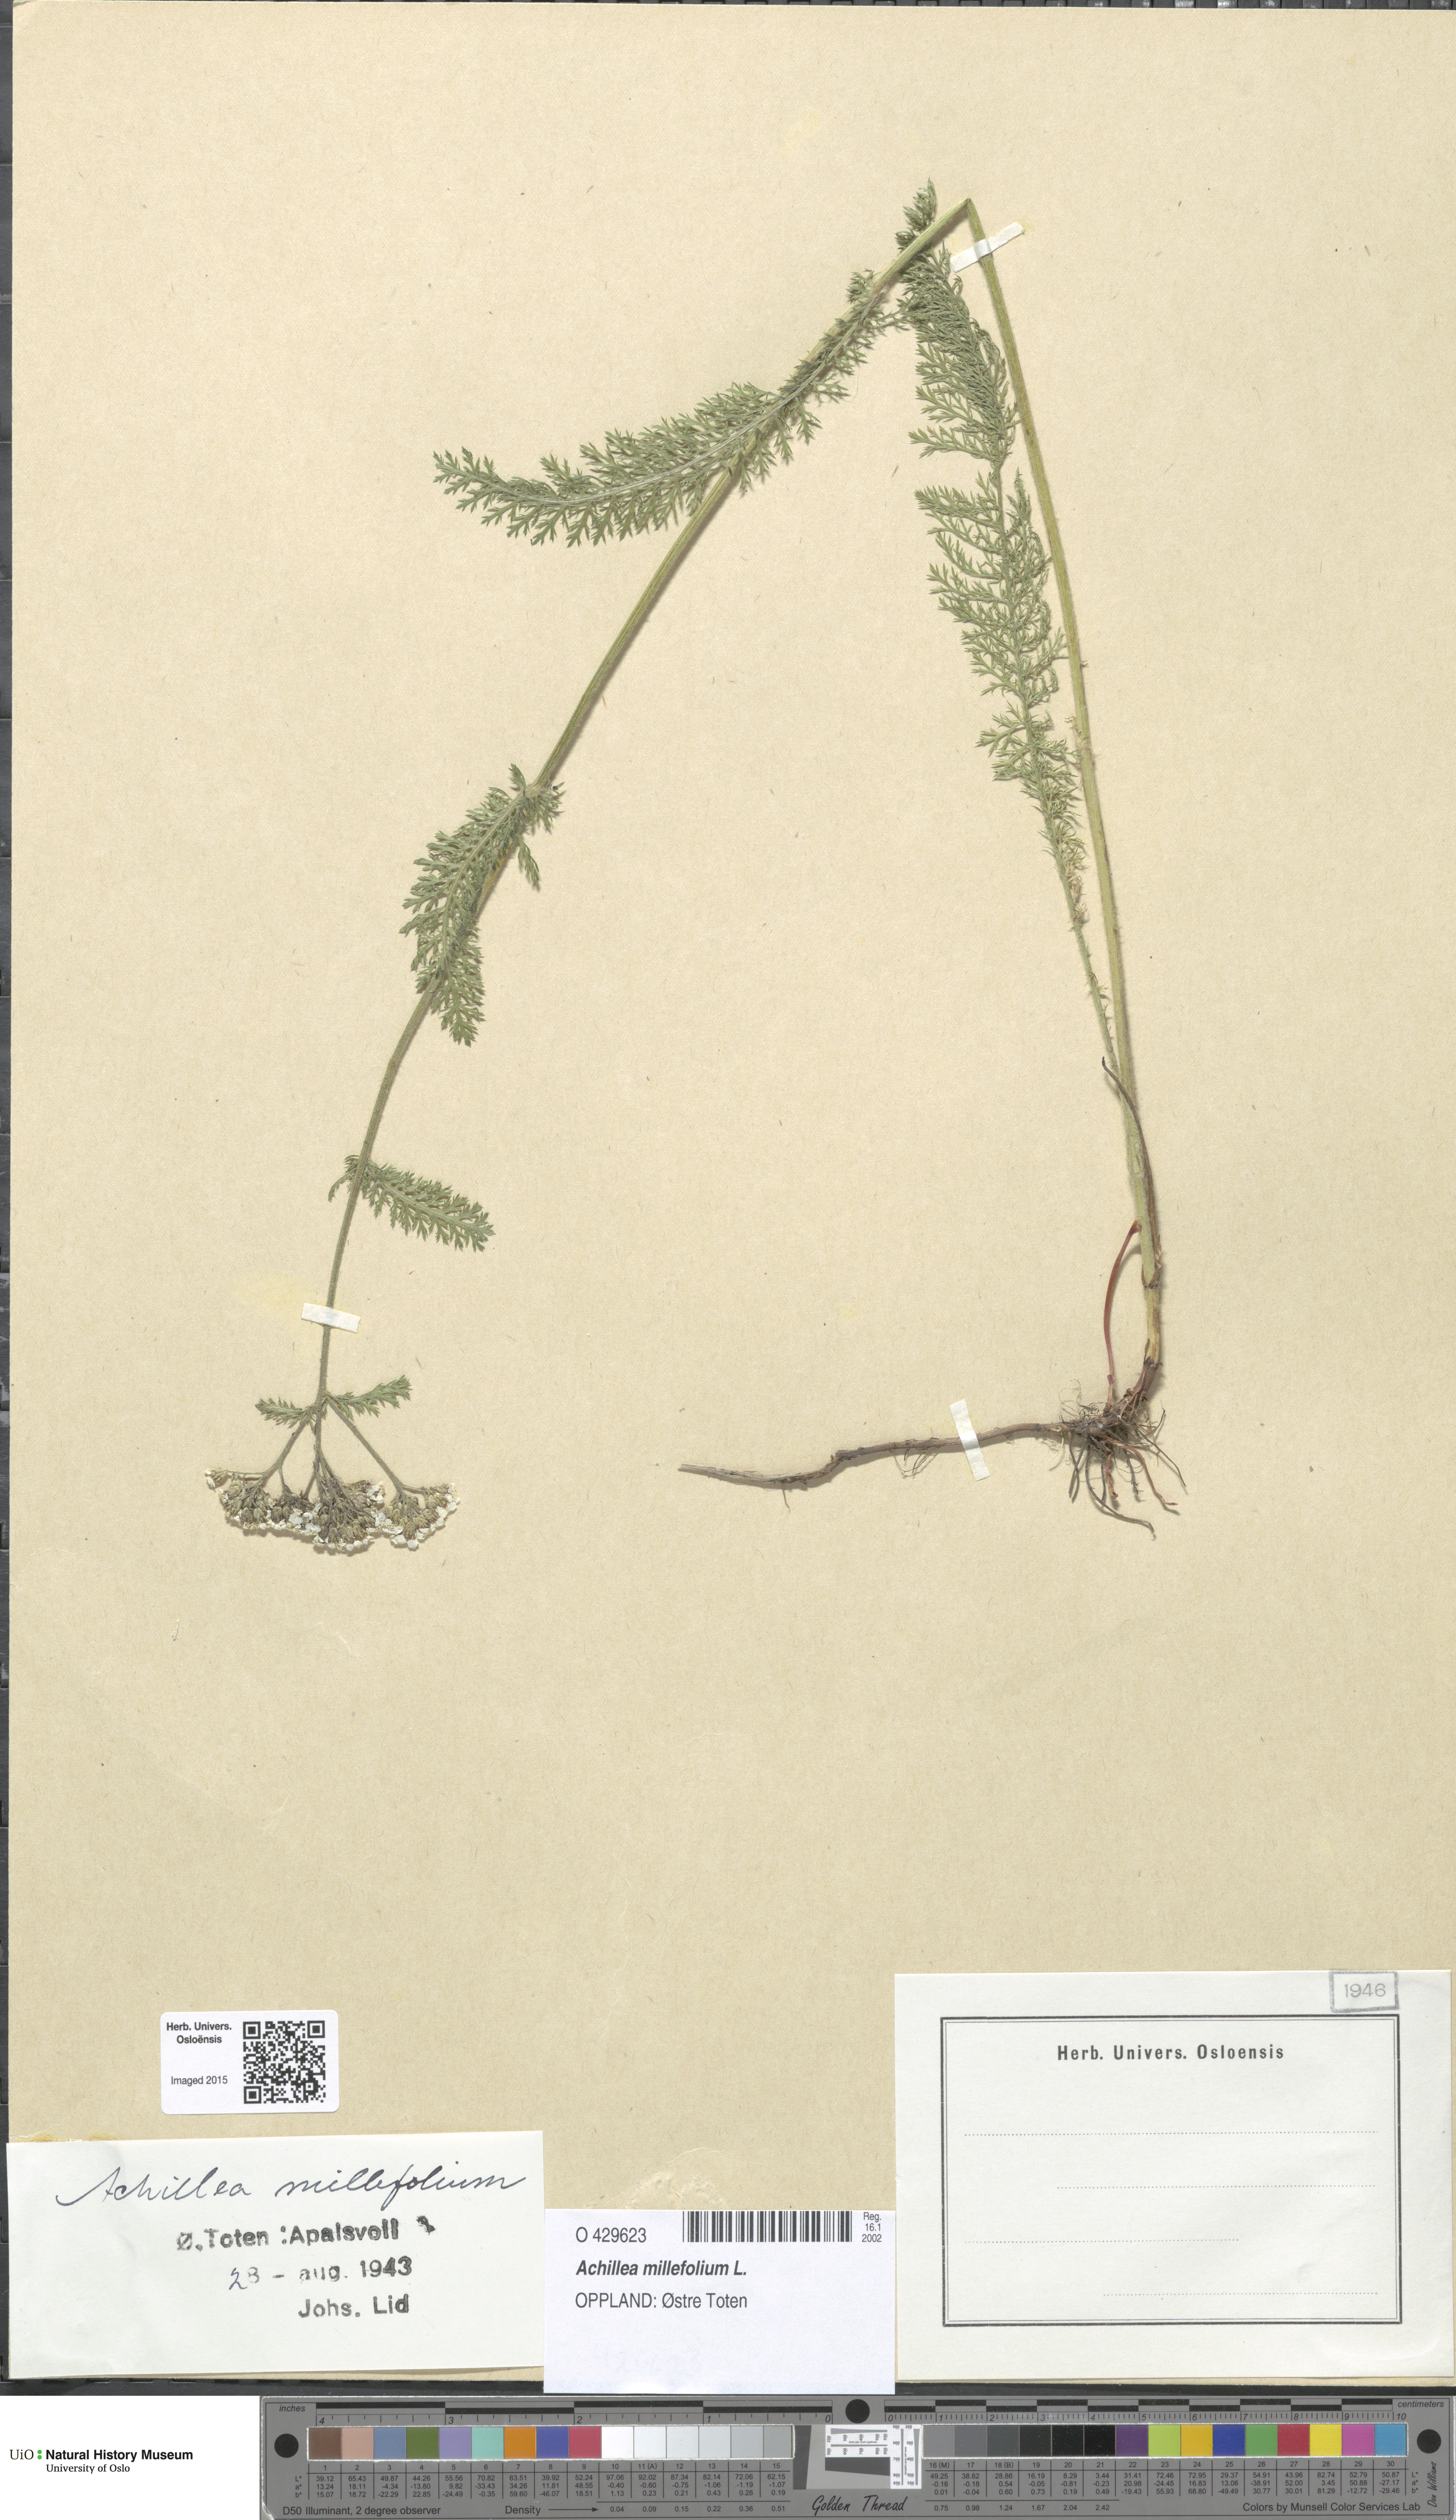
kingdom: Plantae
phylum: Tracheophyta
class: Magnoliopsida
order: Asterales
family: Asteraceae
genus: Achillea
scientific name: Achillea millefolium
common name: Yarrow
